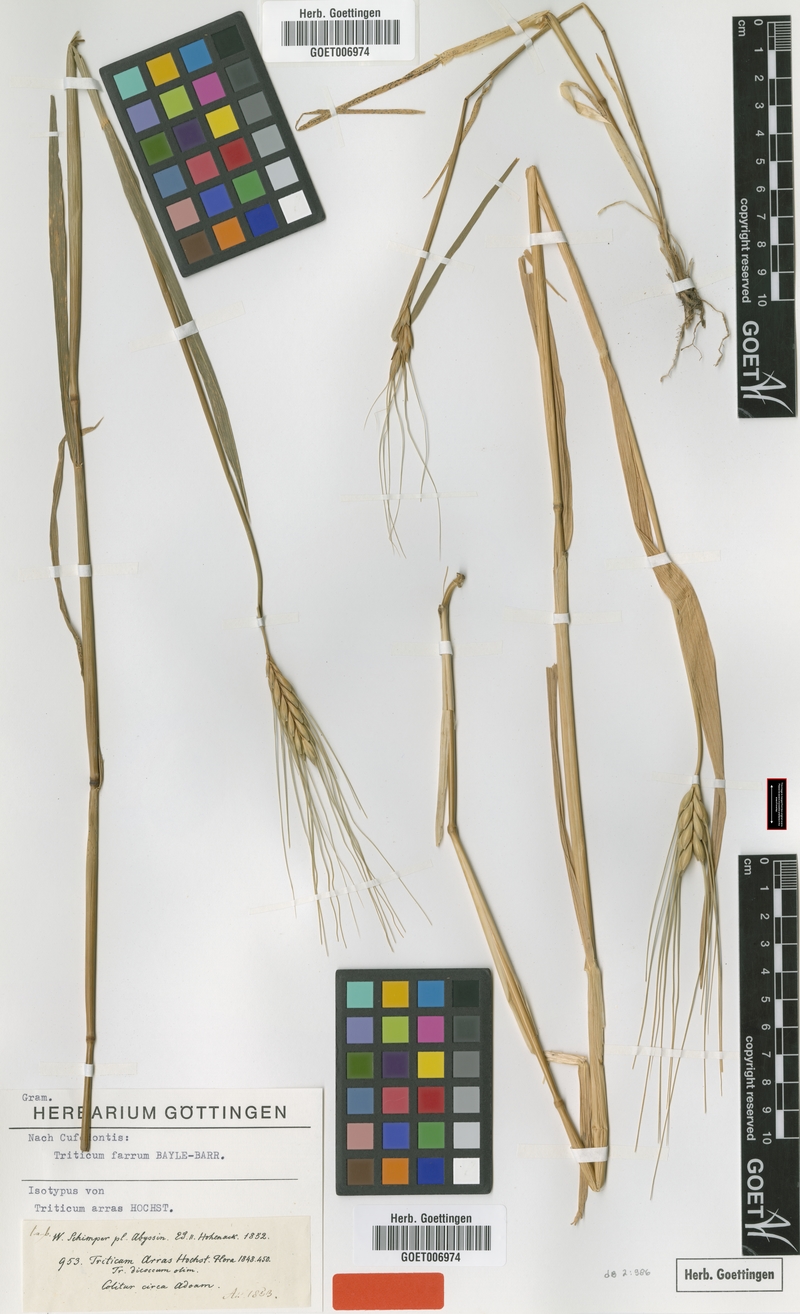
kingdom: Plantae
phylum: Tracheophyta
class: Liliopsida
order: Poales
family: Poaceae
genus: Triticum
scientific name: Triticum turgidum
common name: Rivet wheat
